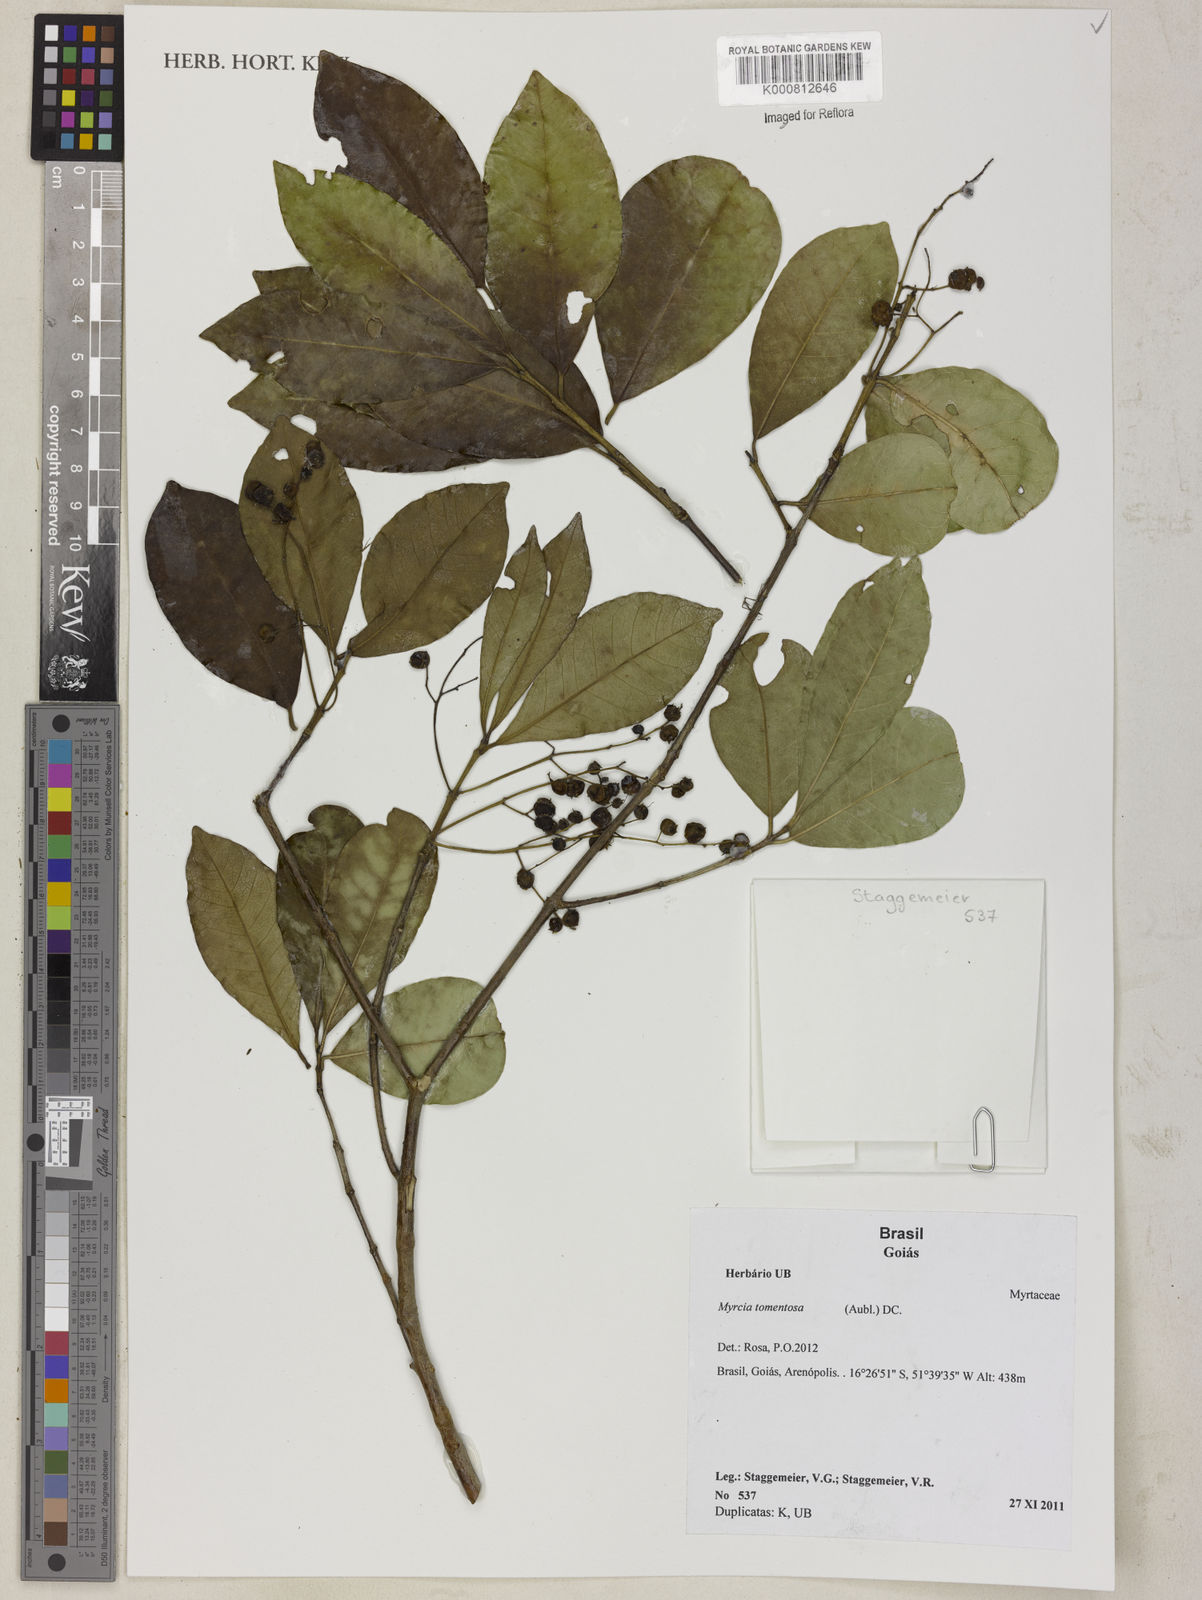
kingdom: Plantae
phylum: Tracheophyta
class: Magnoliopsida
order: Myrtales
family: Myrtaceae
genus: Myrcia
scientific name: Myrcia tomentosa
